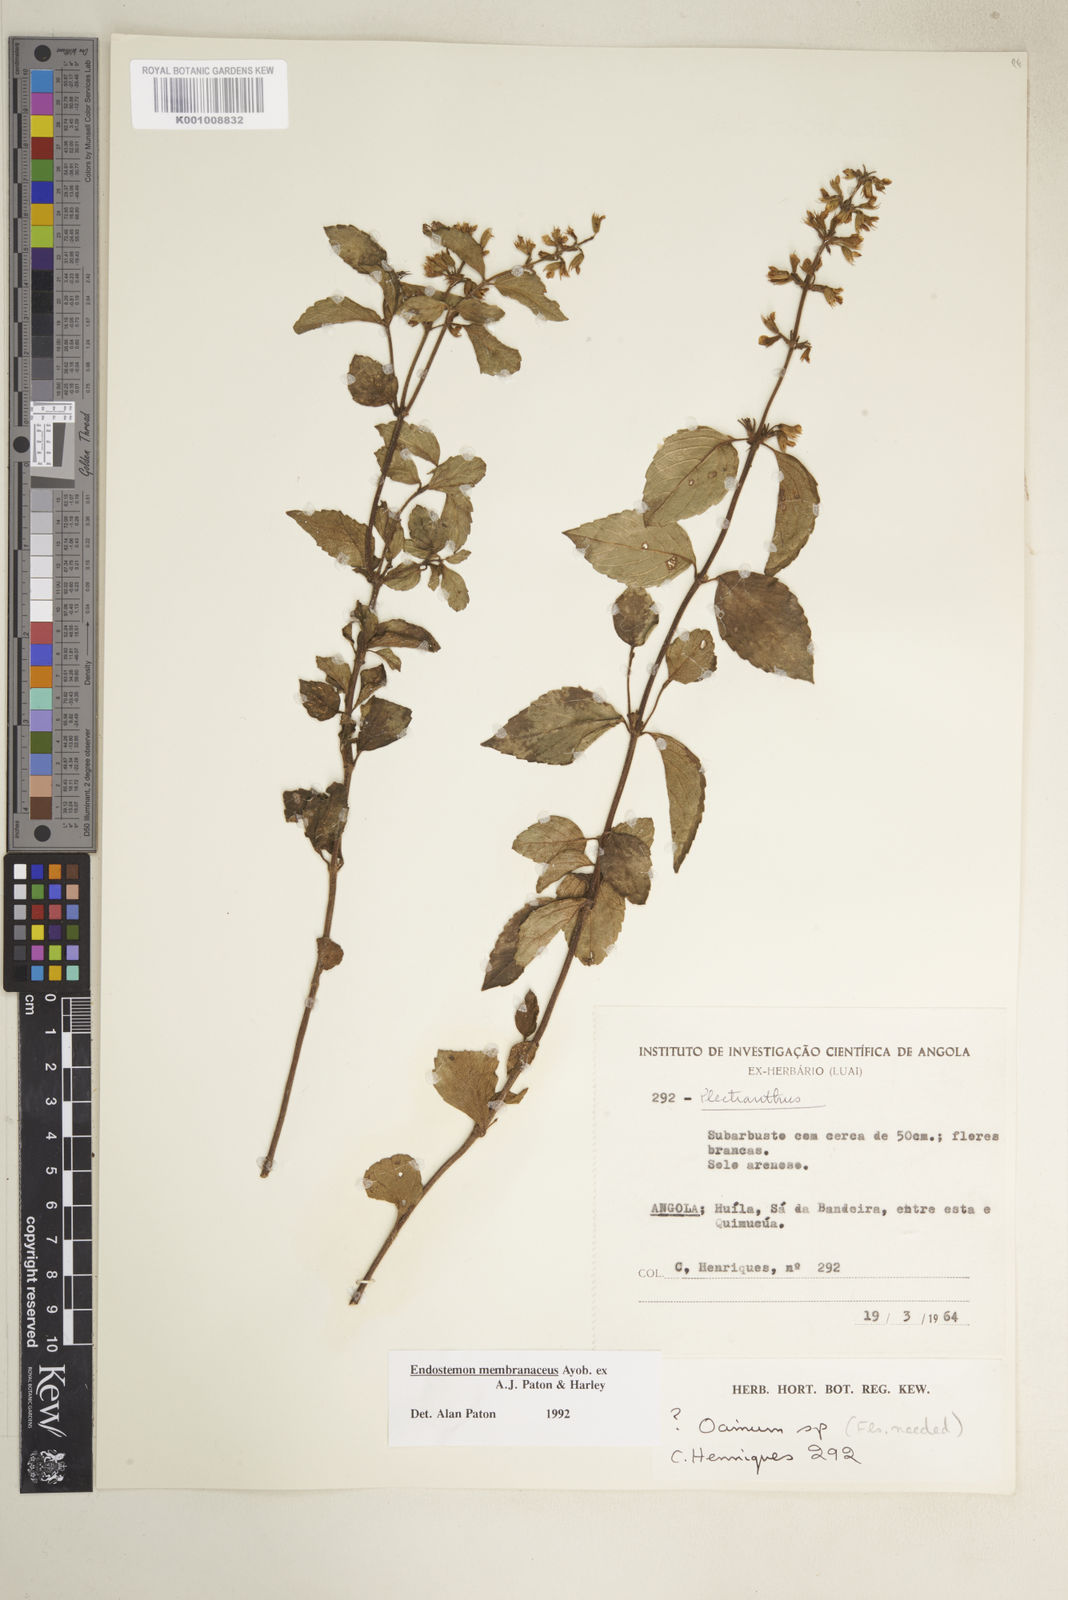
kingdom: Plantae
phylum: Tracheophyta
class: Magnoliopsida
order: Lamiales
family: Lamiaceae
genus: Endostemon
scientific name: Endostemon membranaceus
